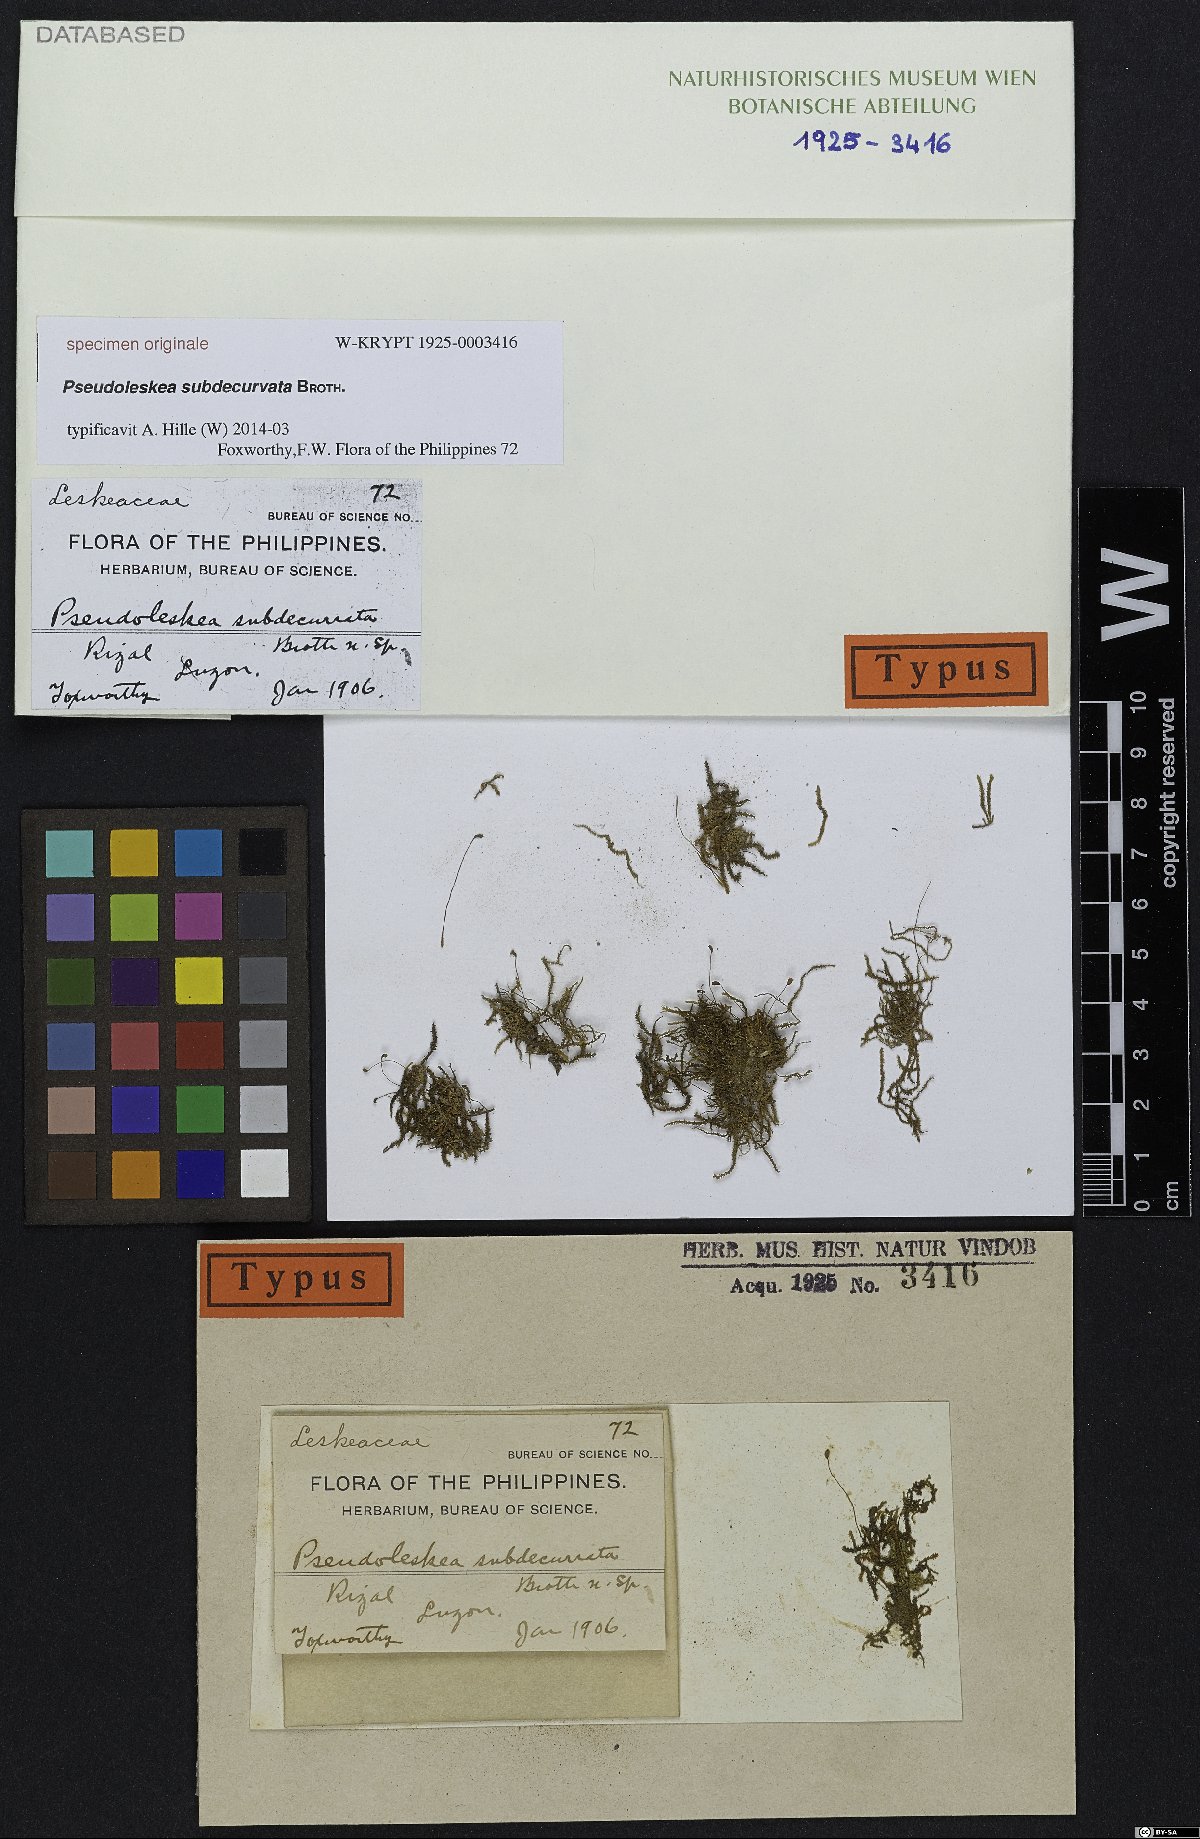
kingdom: Plantae
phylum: Bryophyta
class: Bryopsida
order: Hypnales
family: Leskeaceae
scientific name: Leskeaceae
